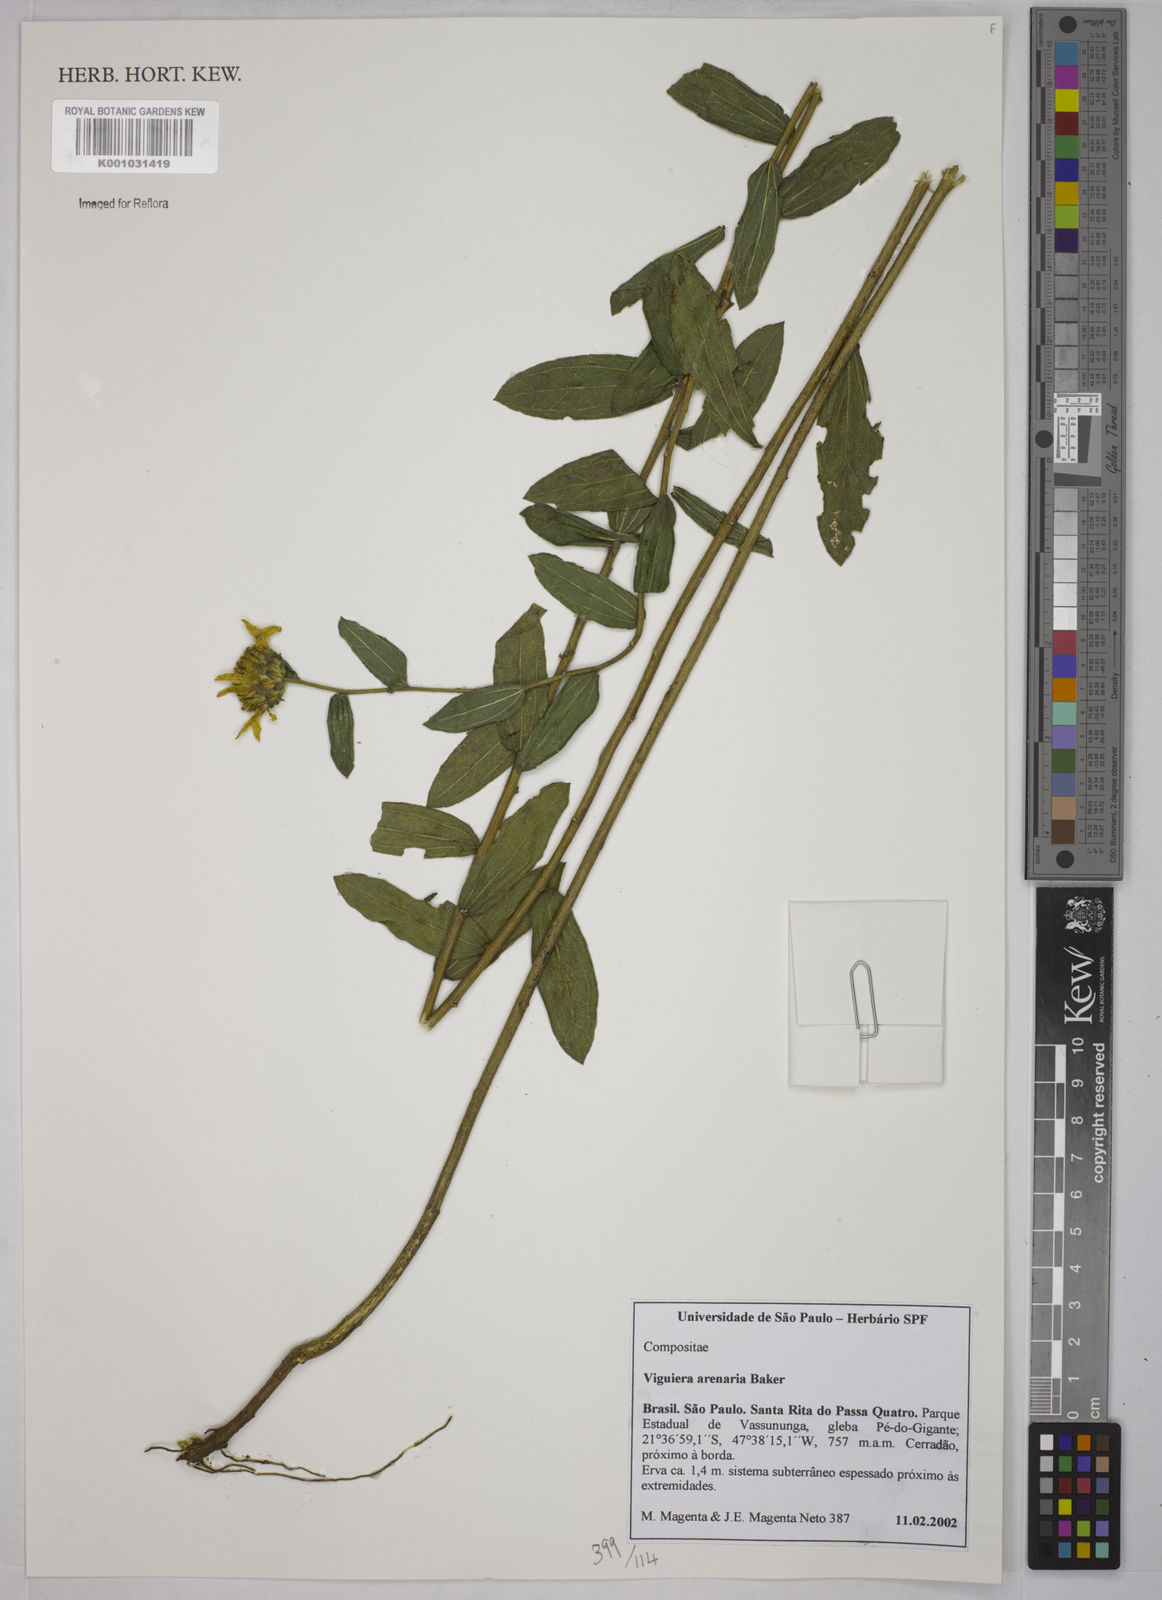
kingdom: Plantae
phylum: Tracheophyta
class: Magnoliopsida
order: Asterales
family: Asteraceae
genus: Aldama
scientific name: Aldama arenaria
